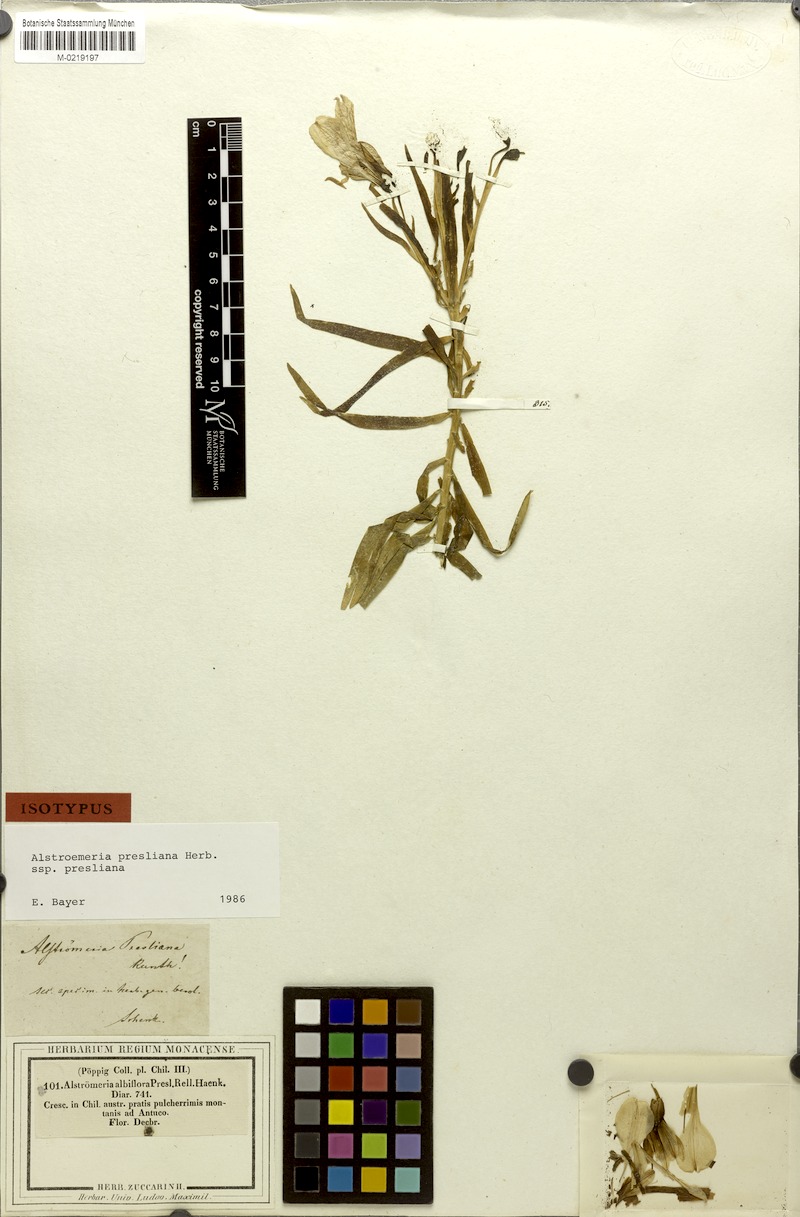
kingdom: Plantae
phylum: Tracheophyta
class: Liliopsida
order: Liliales
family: Alstroemeriaceae
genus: Alstroemeria
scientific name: Alstroemeria presliana
